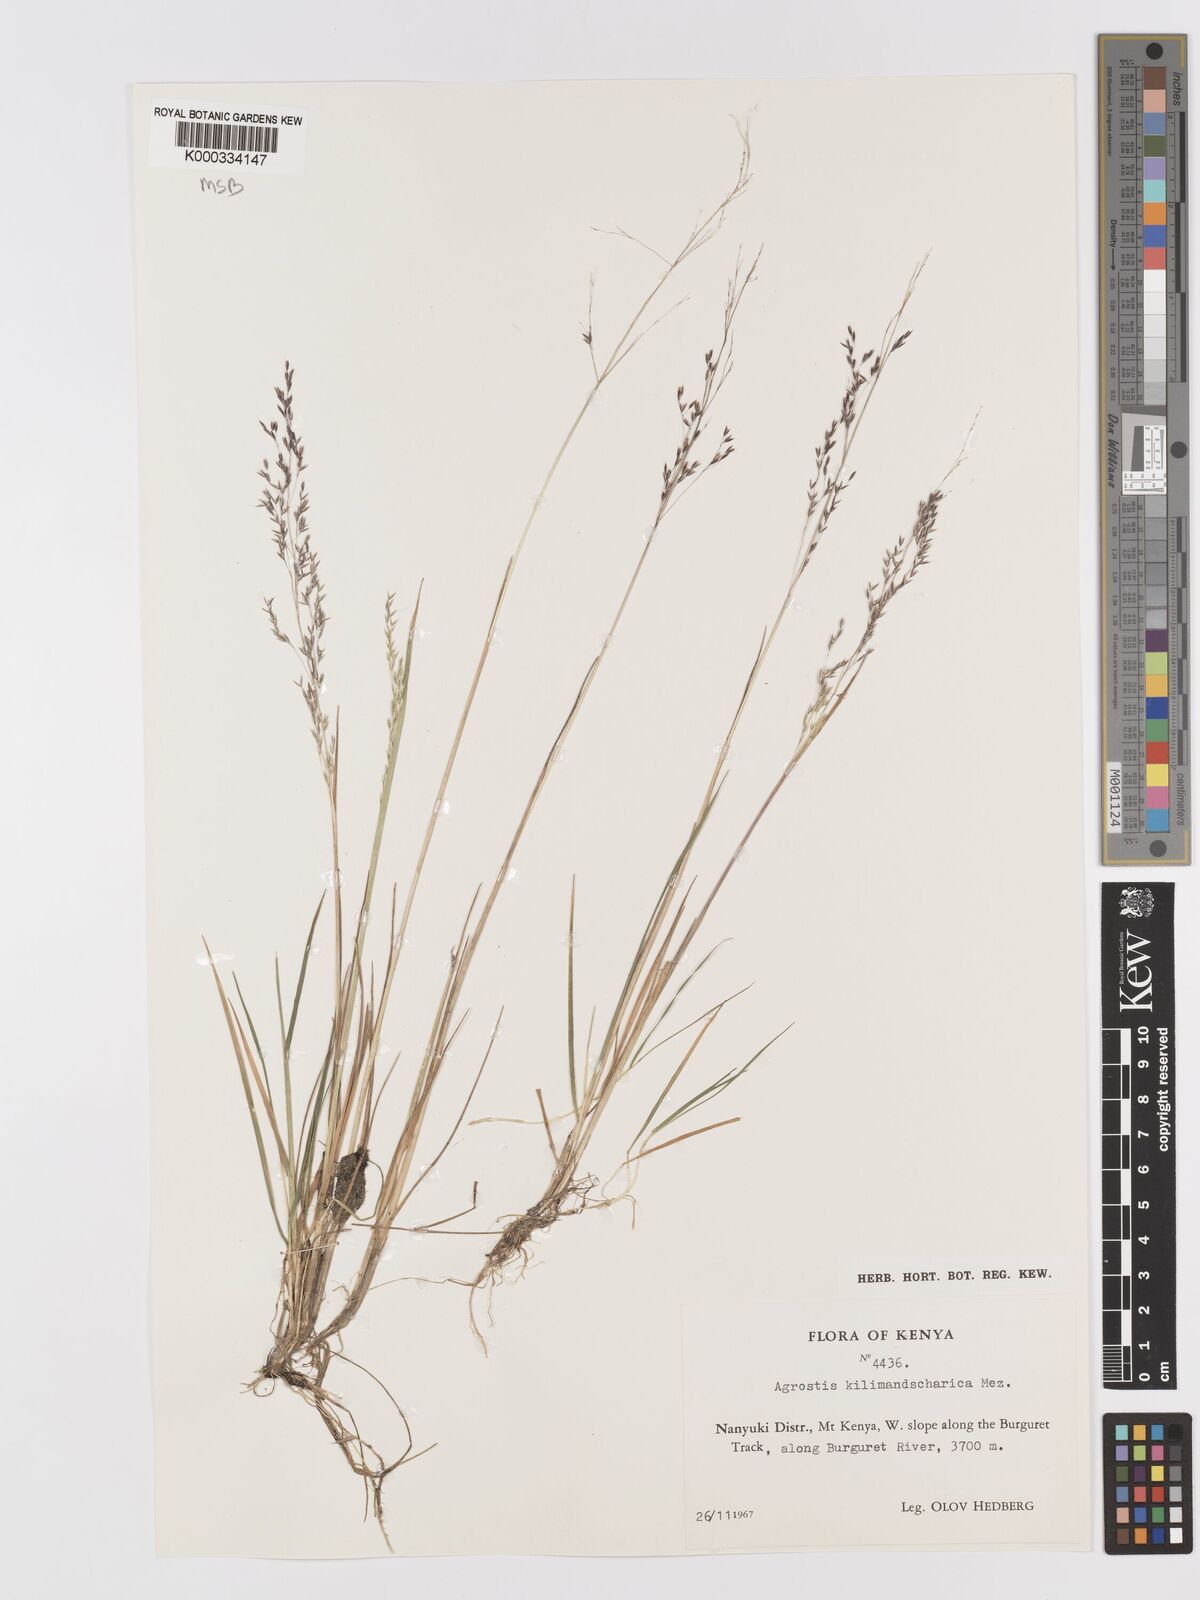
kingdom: Plantae
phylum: Tracheophyta
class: Liliopsida
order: Poales
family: Poaceae
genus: Agrostis
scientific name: Agrostis kilimandscharica
